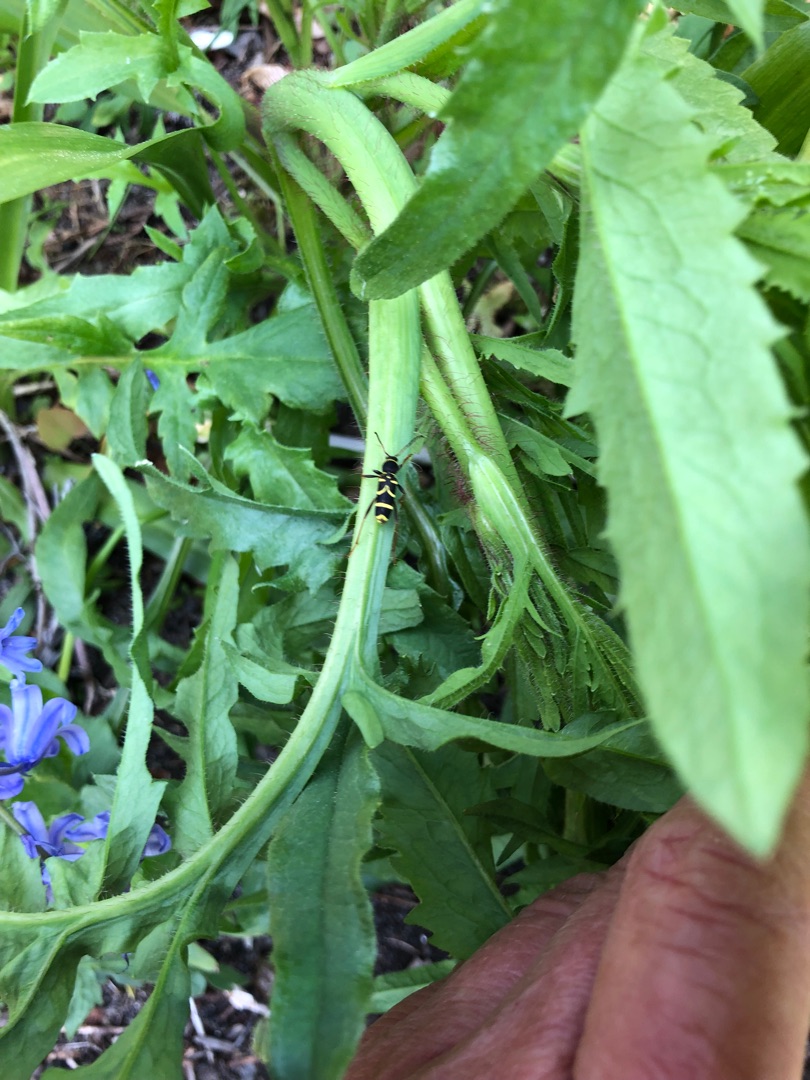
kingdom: Animalia
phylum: Arthropoda
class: Insecta
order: Coleoptera
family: Cerambycidae
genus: Clytus
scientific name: Clytus arietis
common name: Lille hvepsebuk
